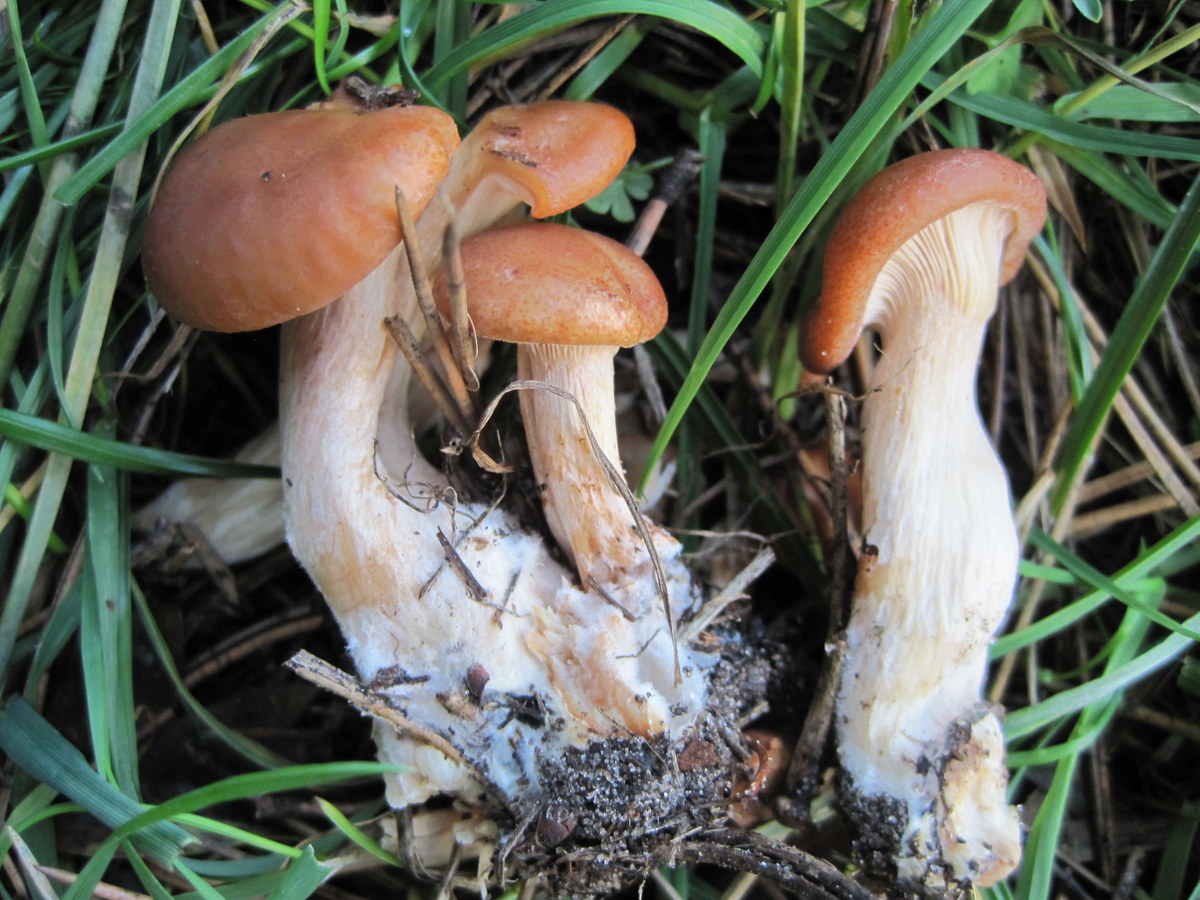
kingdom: Fungi
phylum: Basidiomycota
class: Agaricomycetes
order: Agaricales
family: Tricholomataceae
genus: Paralepista
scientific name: Paralepista gilva
